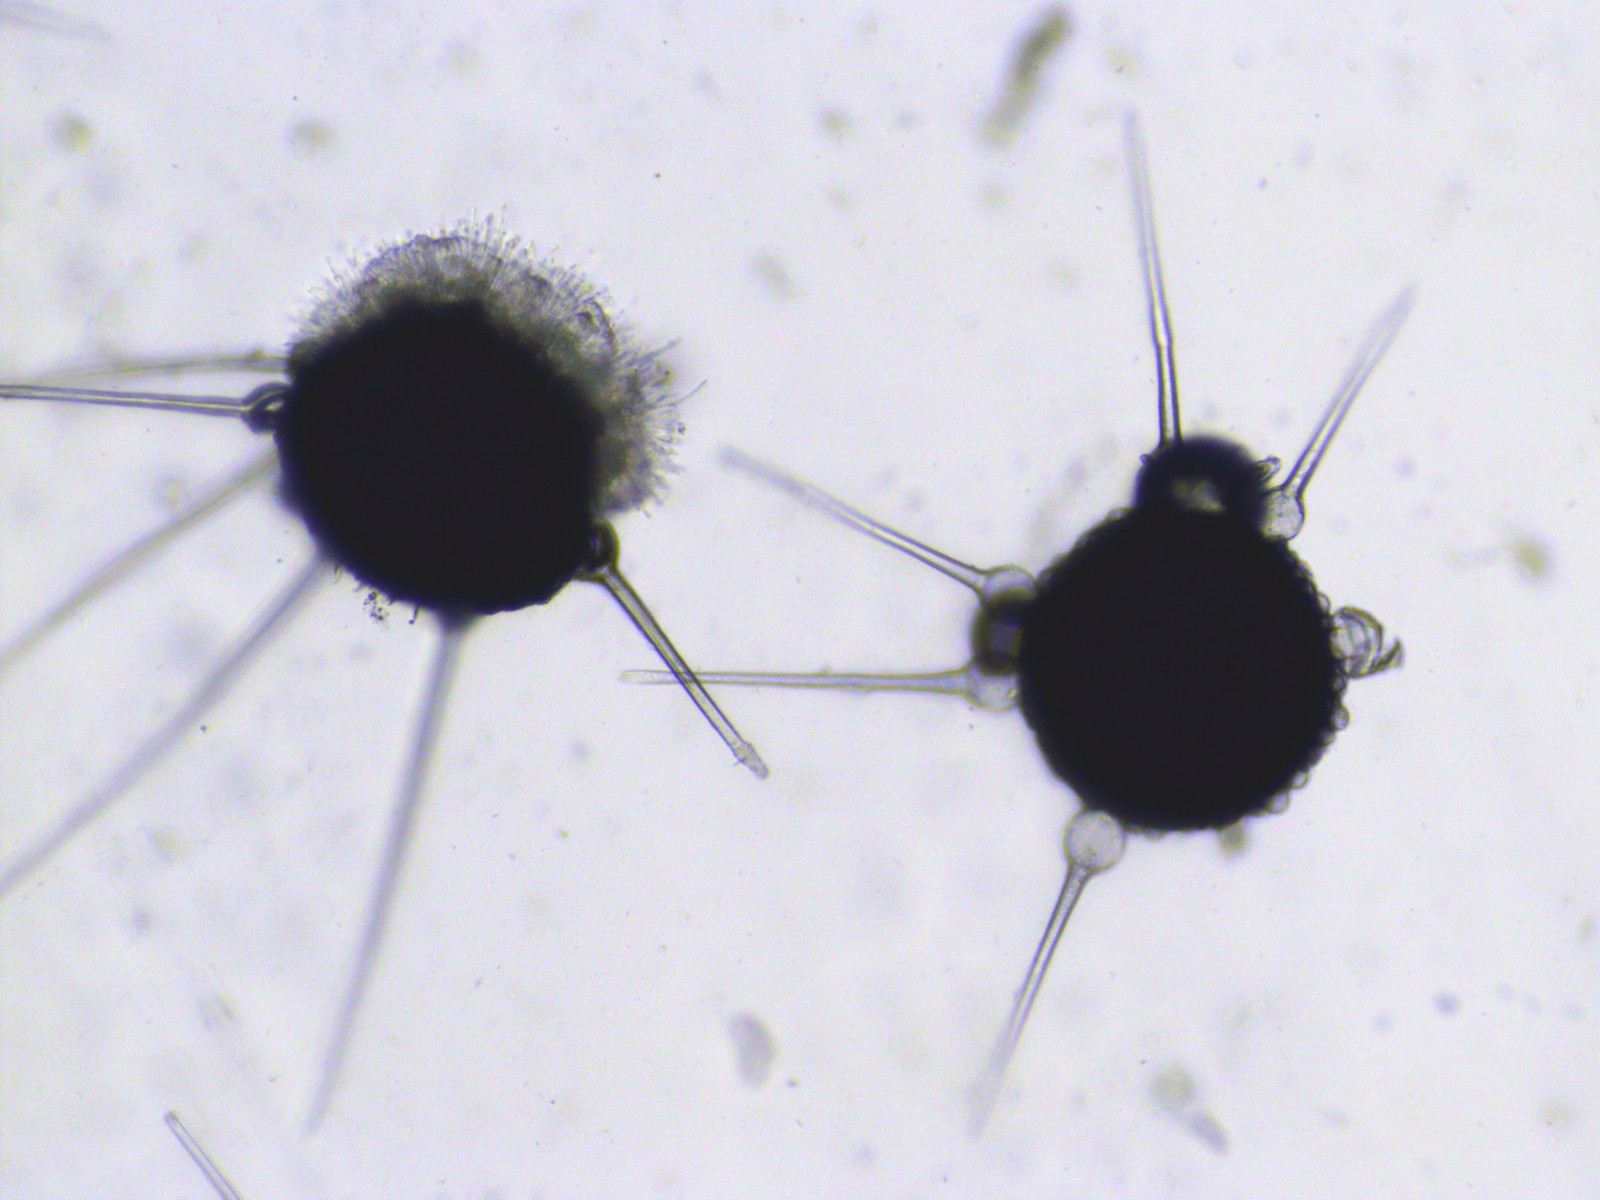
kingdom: Fungi
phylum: Ascomycota
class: Leotiomycetes
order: Helotiales
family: Erysiphaceae
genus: Phyllactinia
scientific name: Phyllactinia guttata
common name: hassel-meldug
